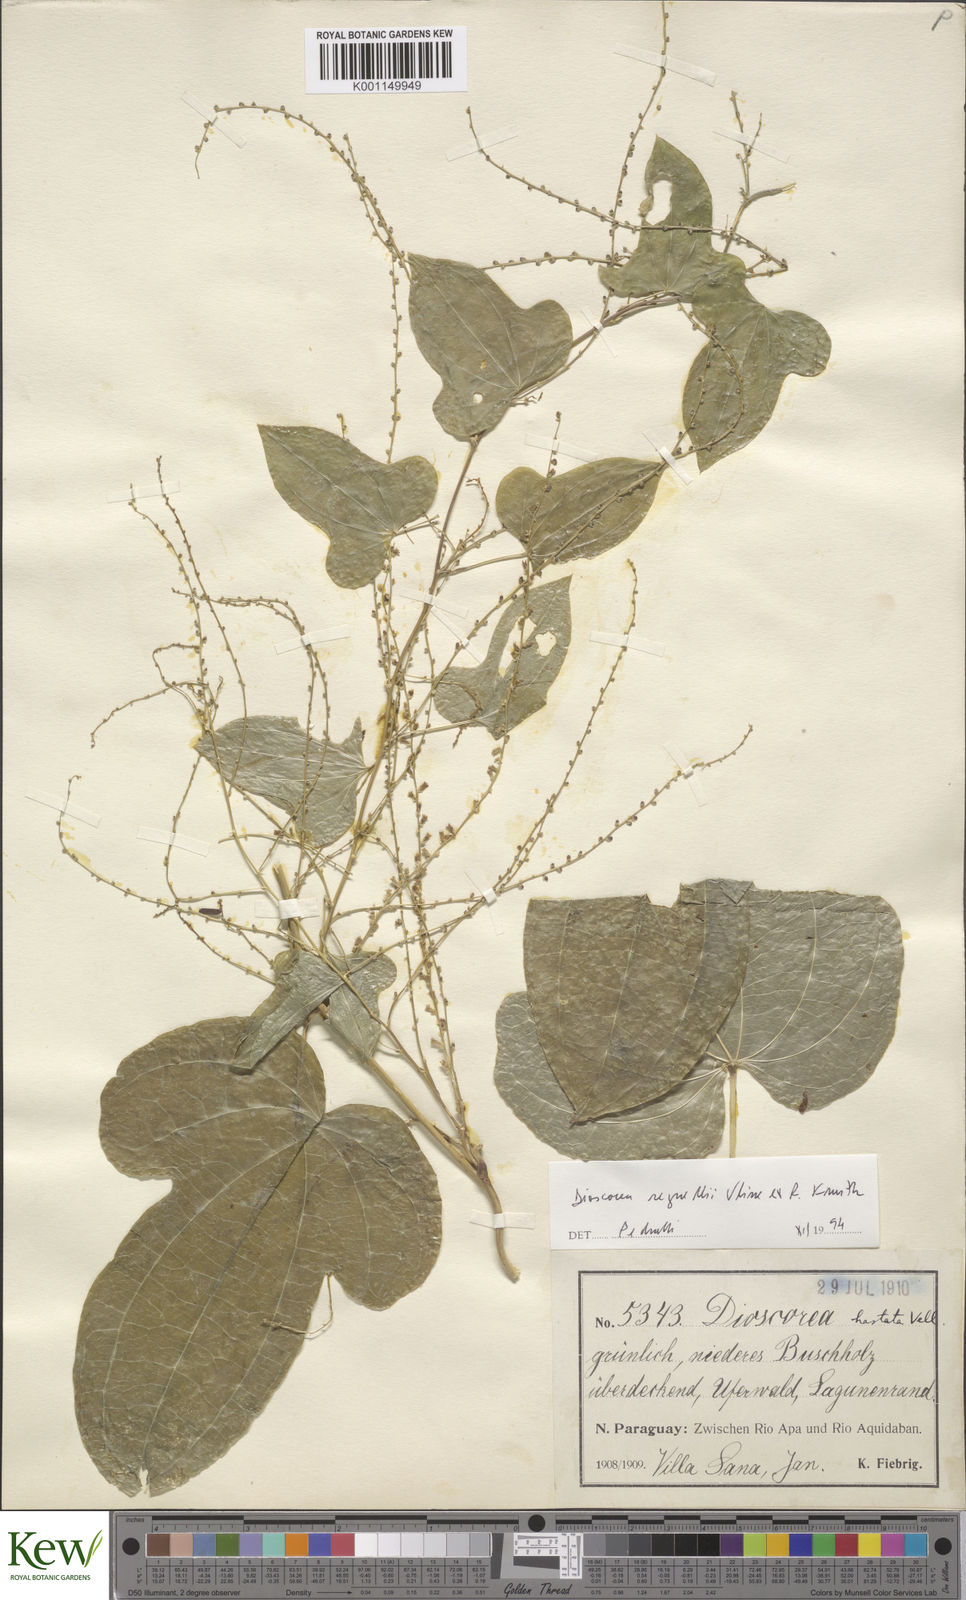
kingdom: Plantae
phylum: Tracheophyta
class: Liliopsida
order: Dioscoreales
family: Dioscoreaceae
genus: Dioscorea
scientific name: Dioscorea hastata
